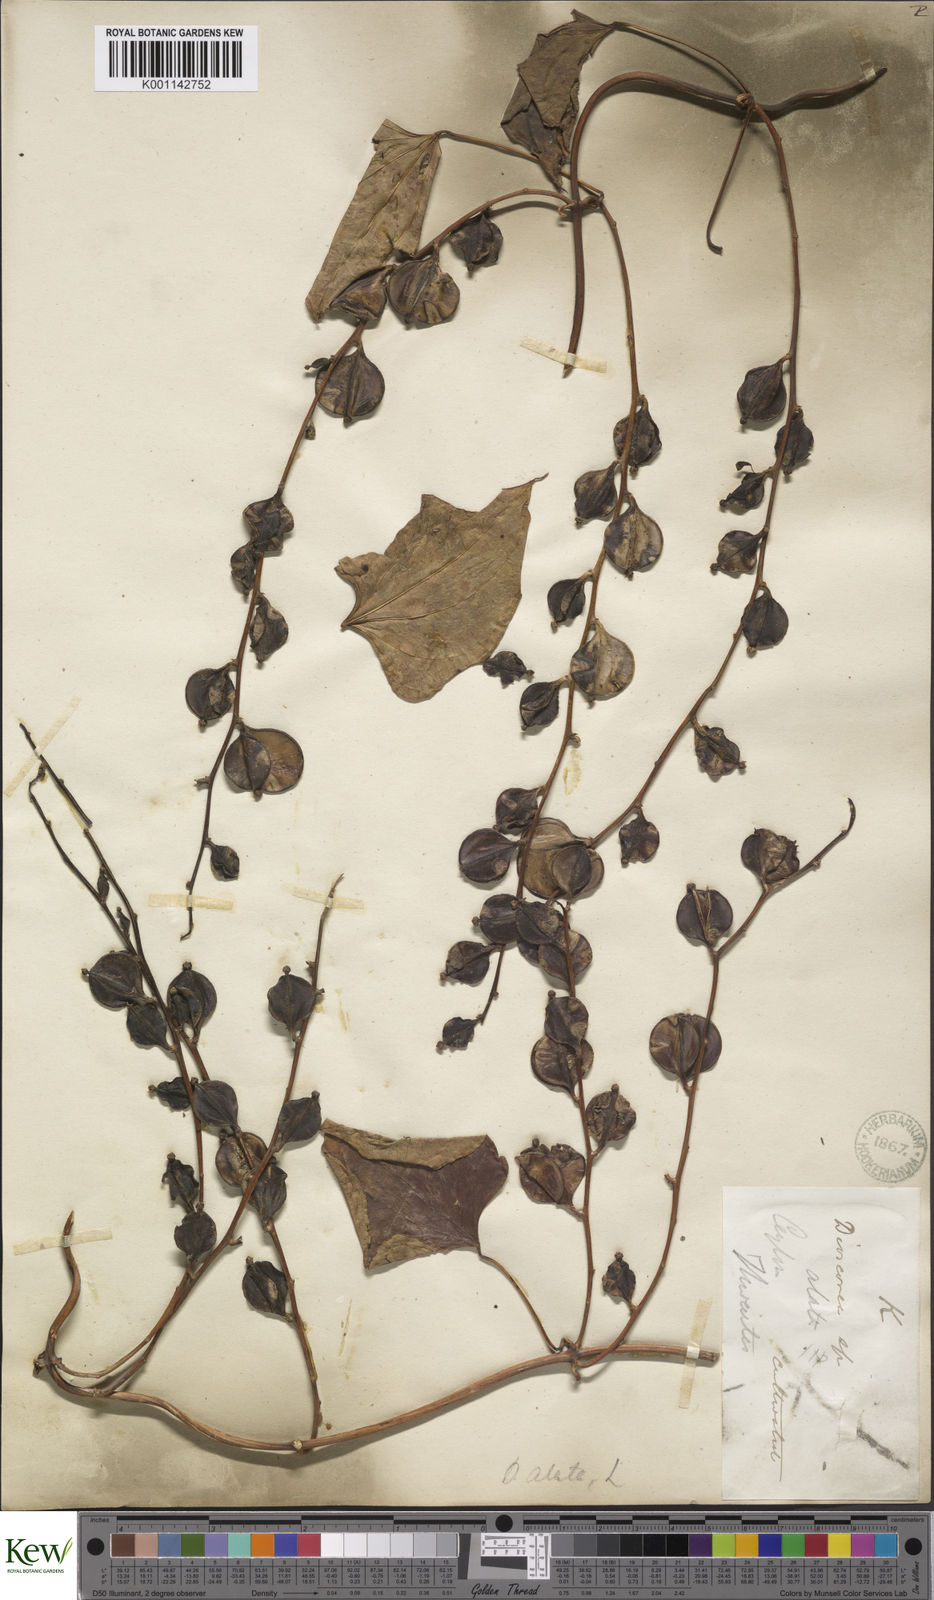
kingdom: Plantae
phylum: Tracheophyta
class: Liliopsida
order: Dioscoreales
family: Dioscoreaceae
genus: Dioscorea
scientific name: Dioscorea alata
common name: Water yam
